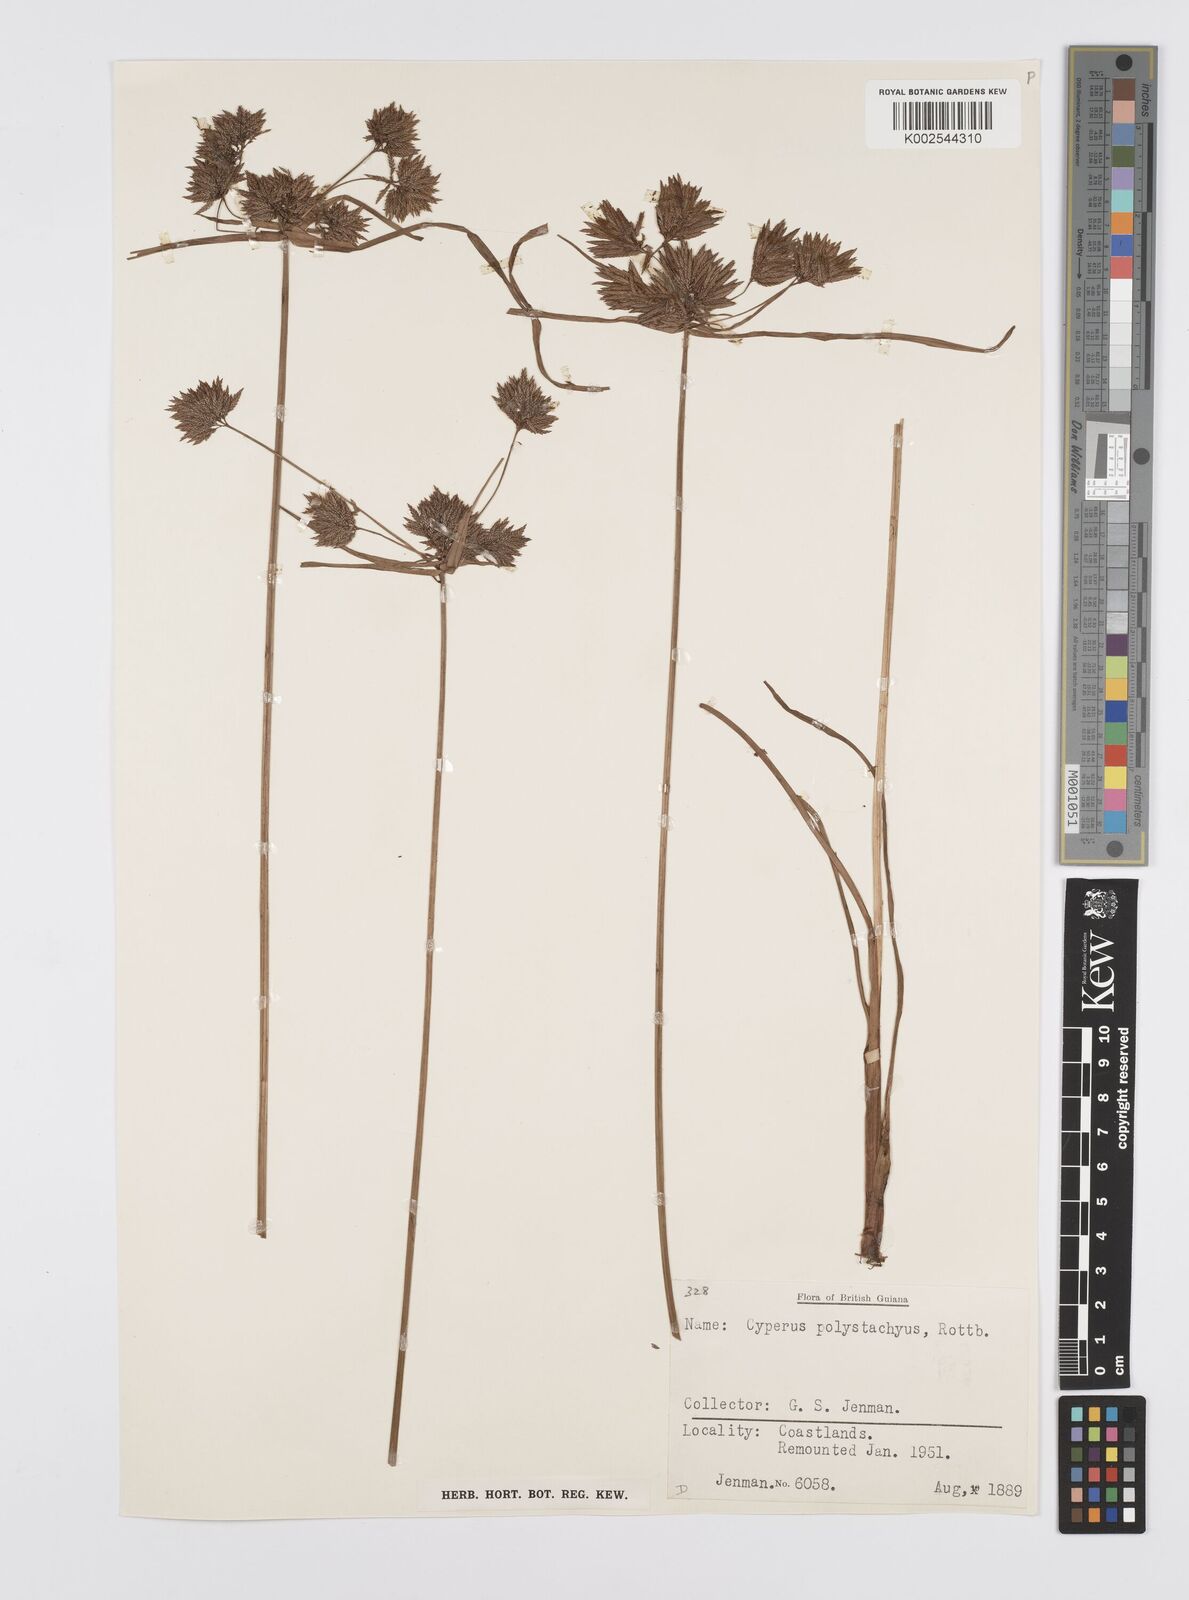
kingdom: Plantae
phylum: Tracheophyta
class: Liliopsida
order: Poales
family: Cyperaceae
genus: Cyperus
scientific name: Cyperus polystachyos
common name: Bunchy flat sedge
